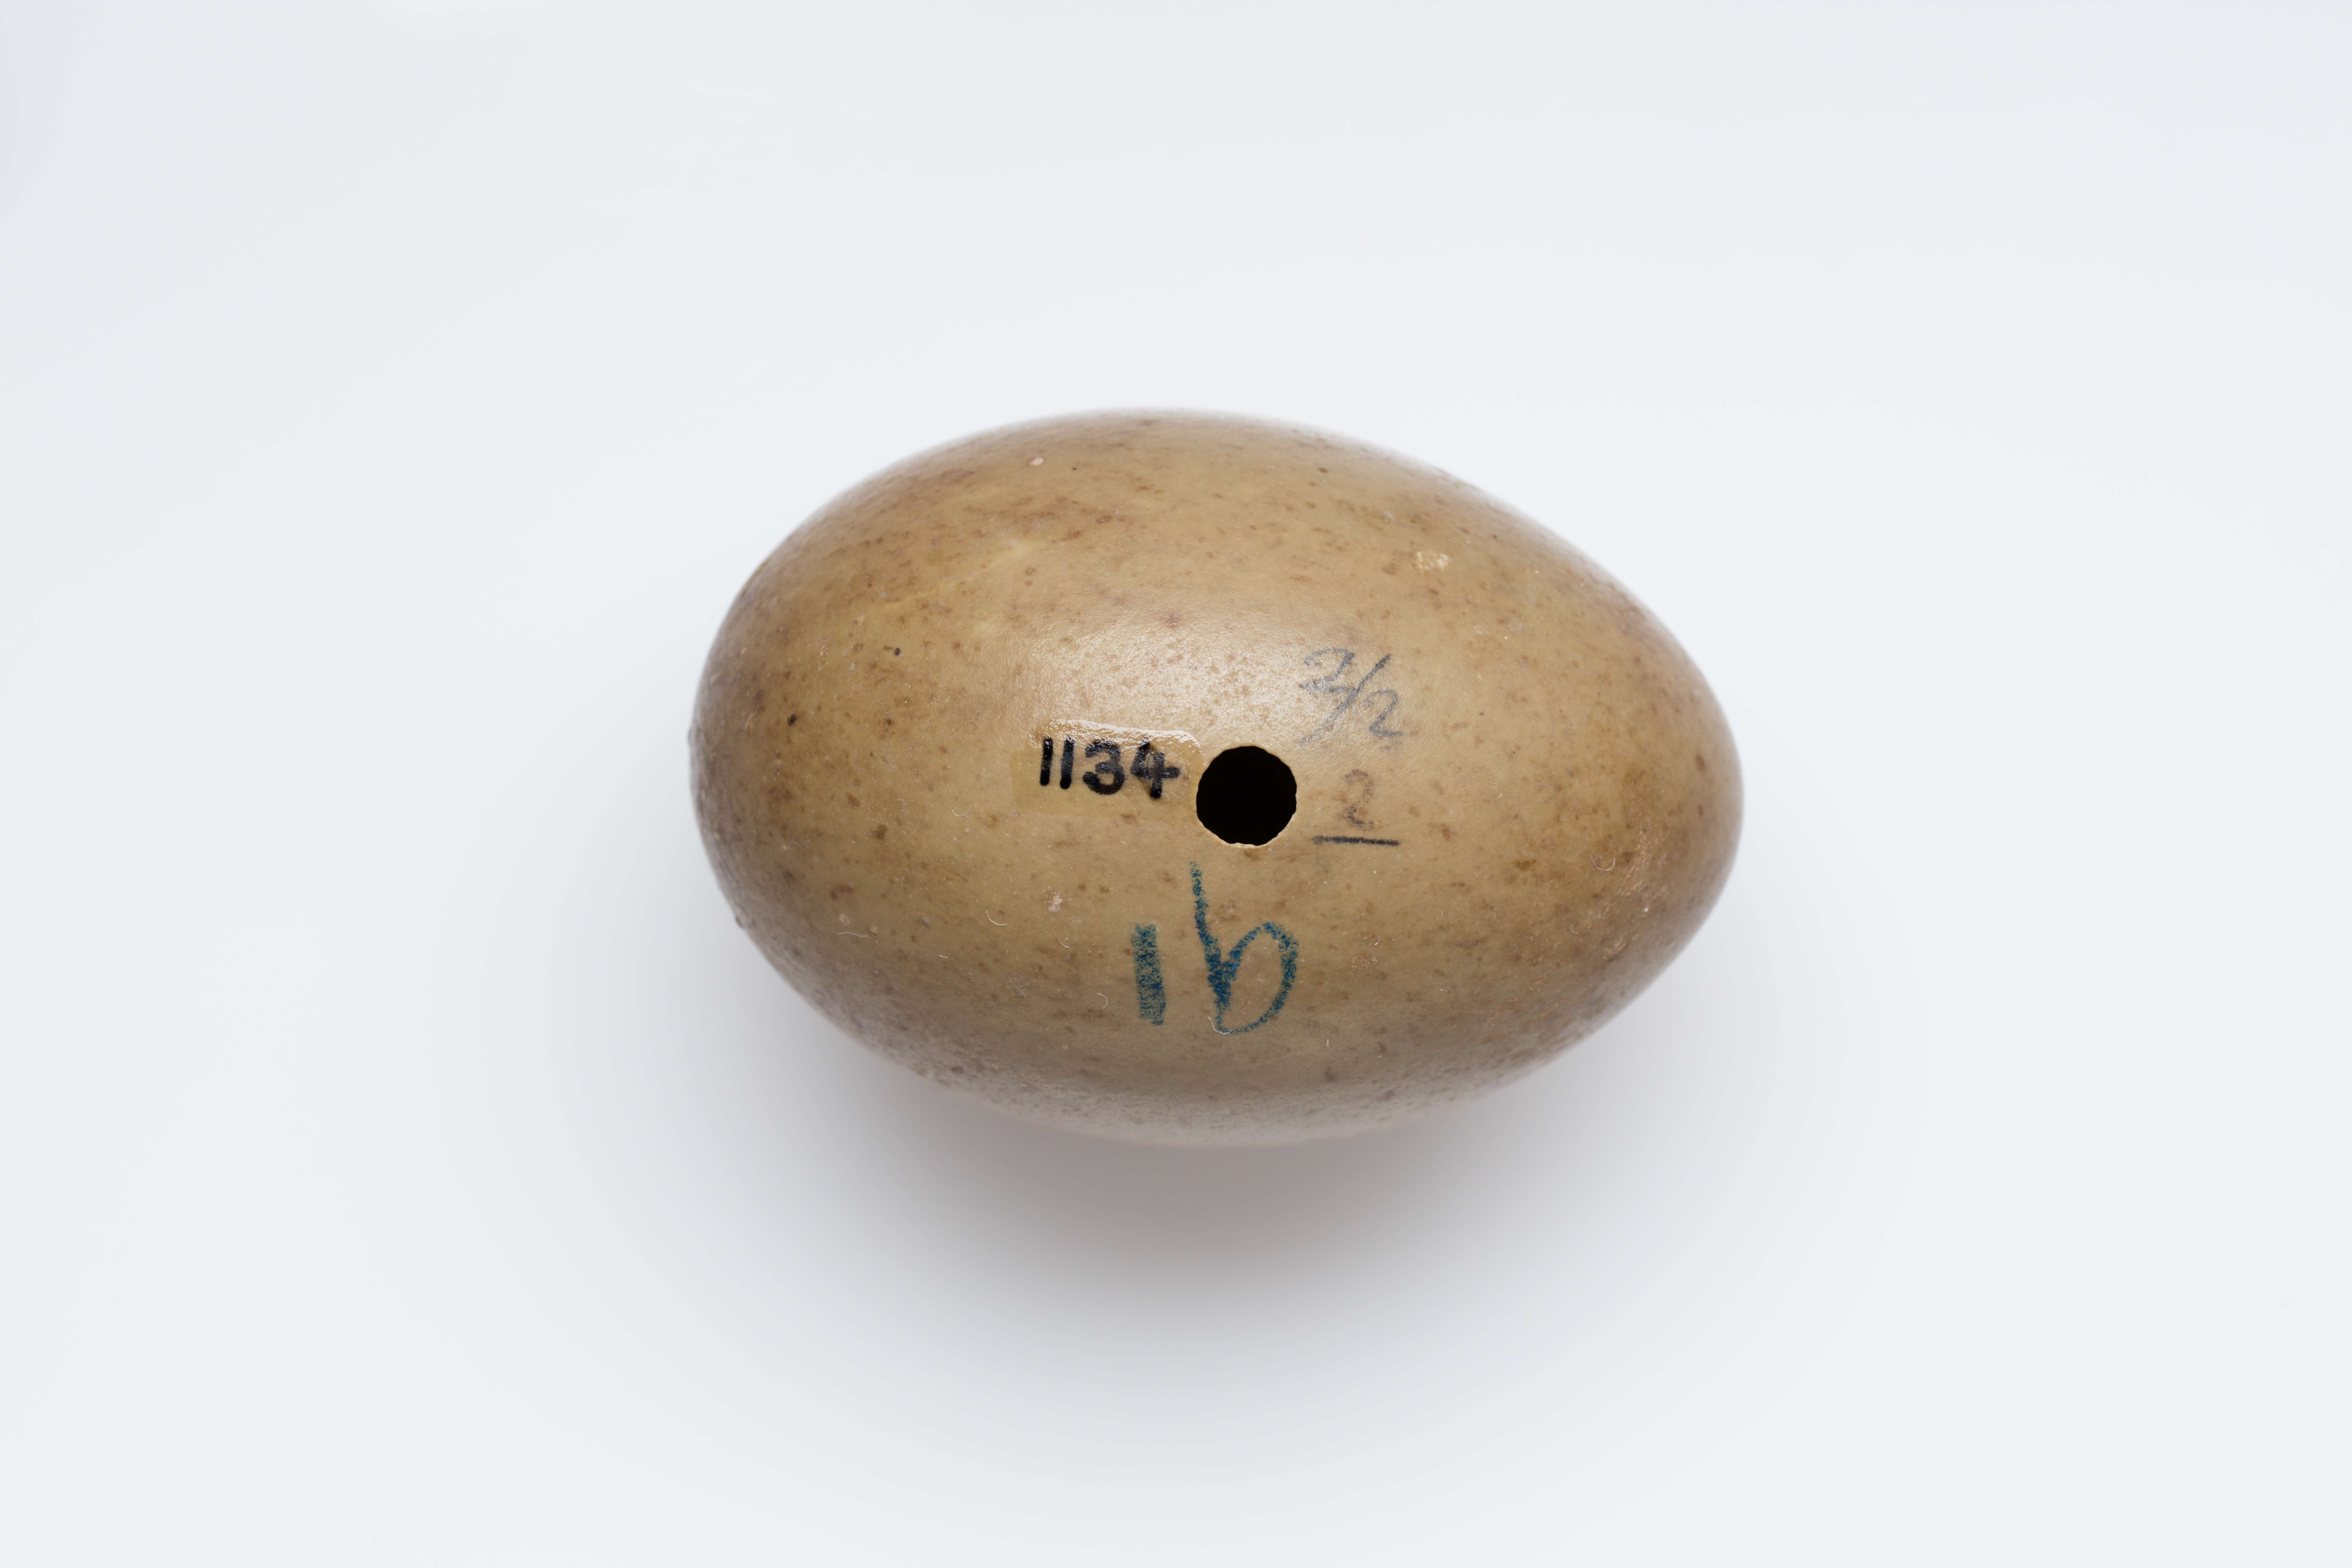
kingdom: Animalia
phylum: Chordata
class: Aves
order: Otidiformes
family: Otididae
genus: Ardeotis
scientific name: Ardeotis australis
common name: Australian bustard
